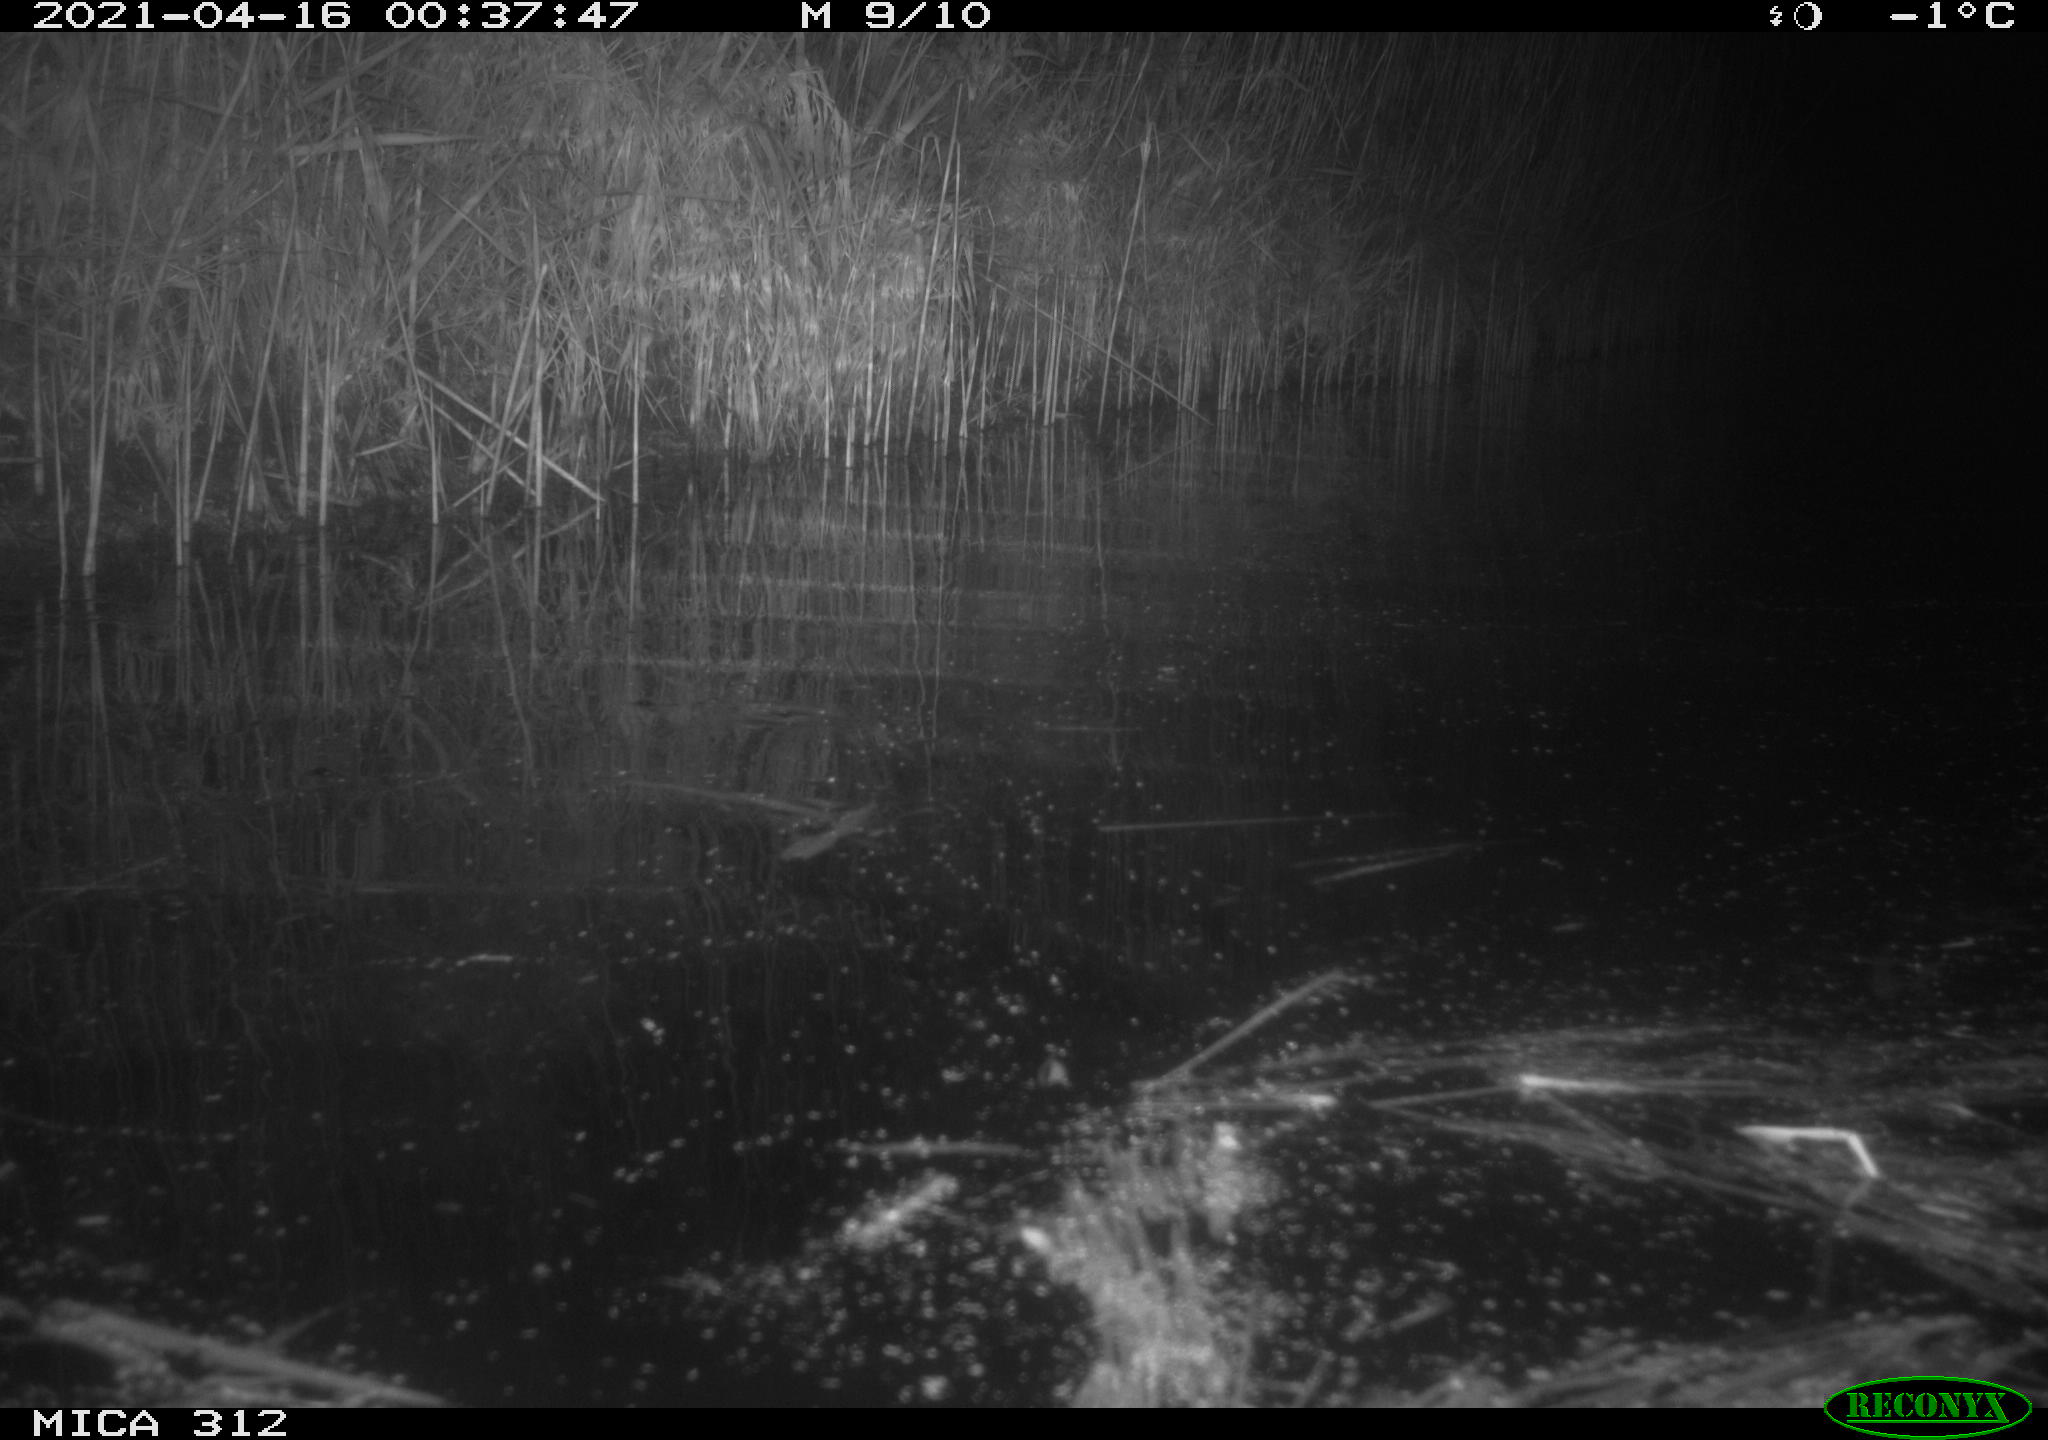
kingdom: Animalia
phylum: Chordata
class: Aves
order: Anseriformes
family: Anatidae
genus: Anas
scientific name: Anas platyrhynchos
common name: Mallard
